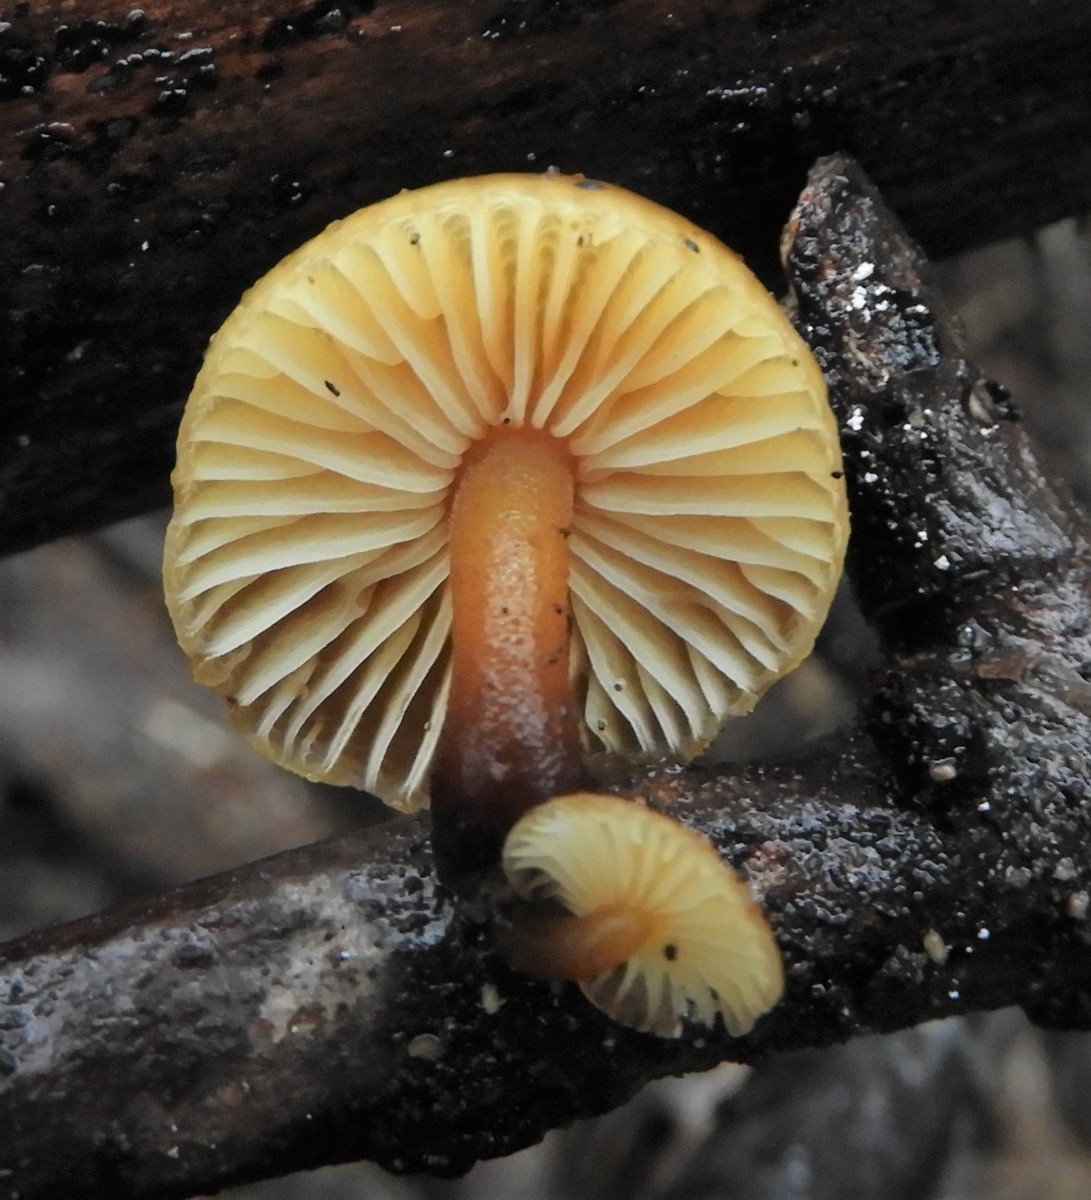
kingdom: Fungi
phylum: Basidiomycota
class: Agaricomycetes
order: Agaricales
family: Physalacriaceae
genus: Flammulina
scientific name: Flammulina velutipes
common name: gul fløjlsfod
